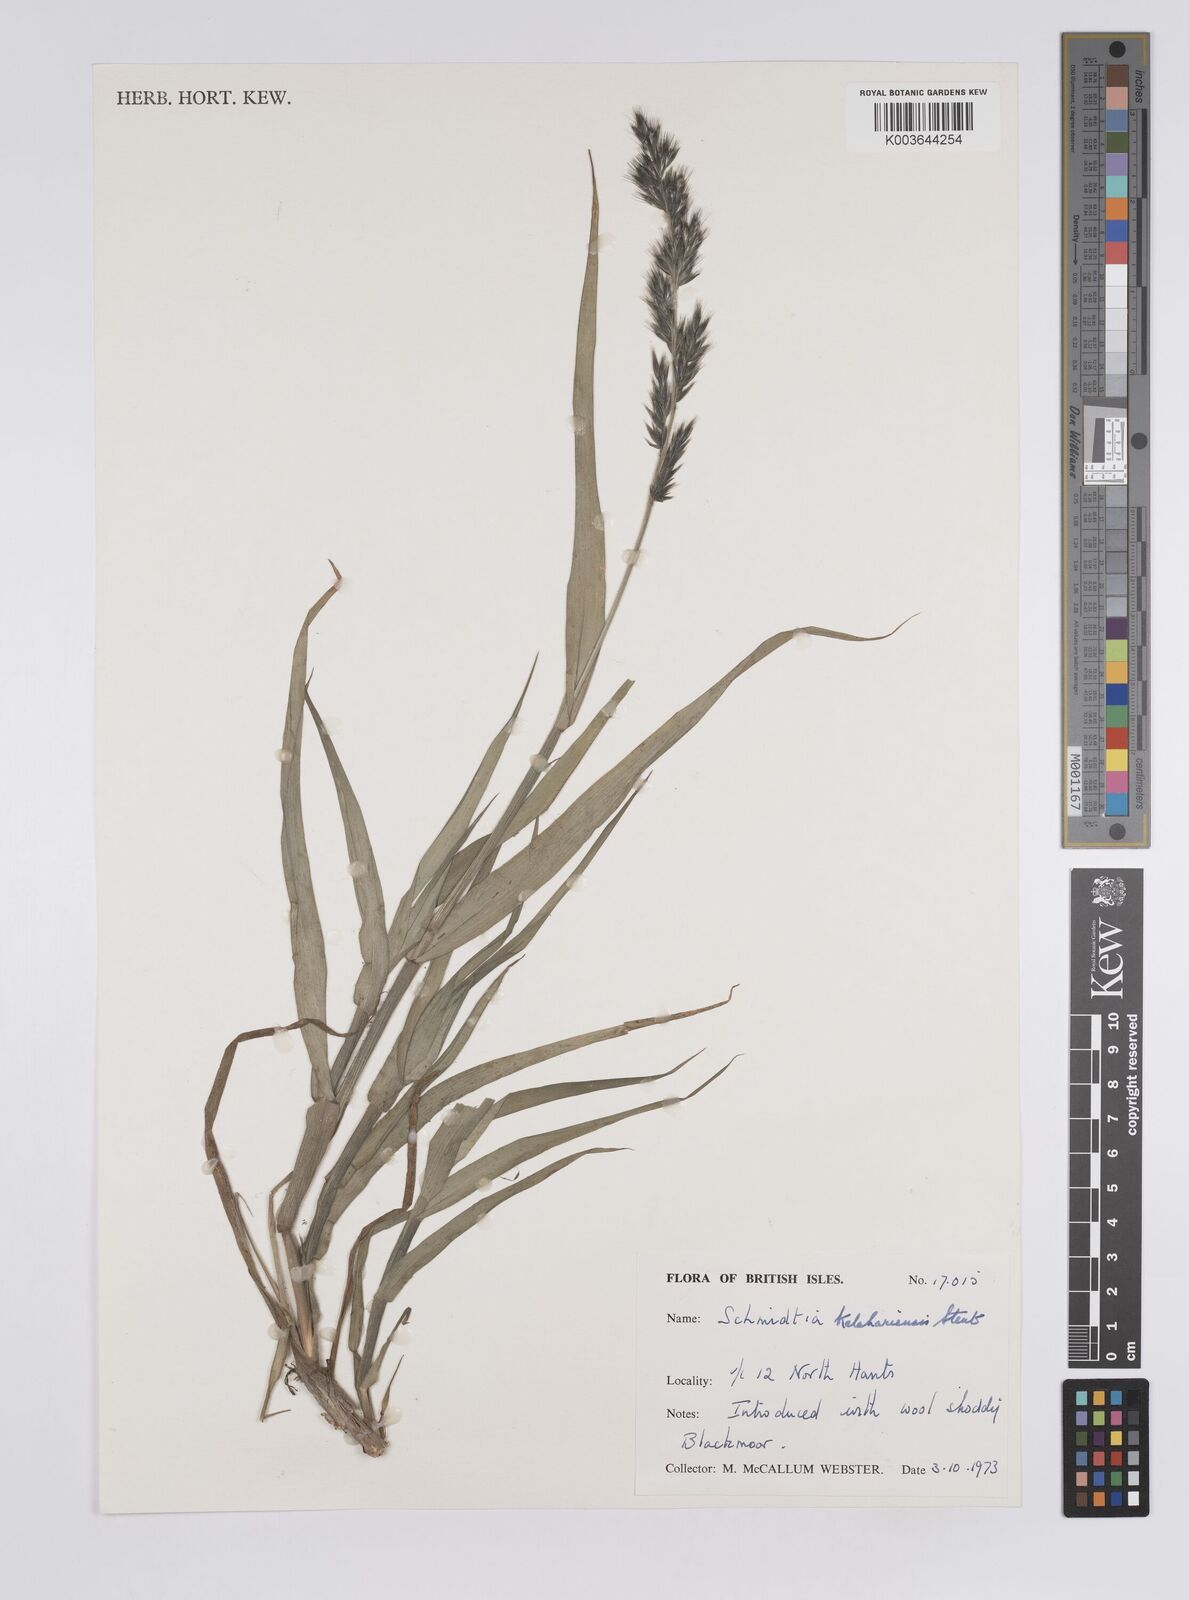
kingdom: Plantae
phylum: Tracheophyta
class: Liliopsida
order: Poales
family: Poaceae
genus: Schmidtia
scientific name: Schmidtia kalahariensis
